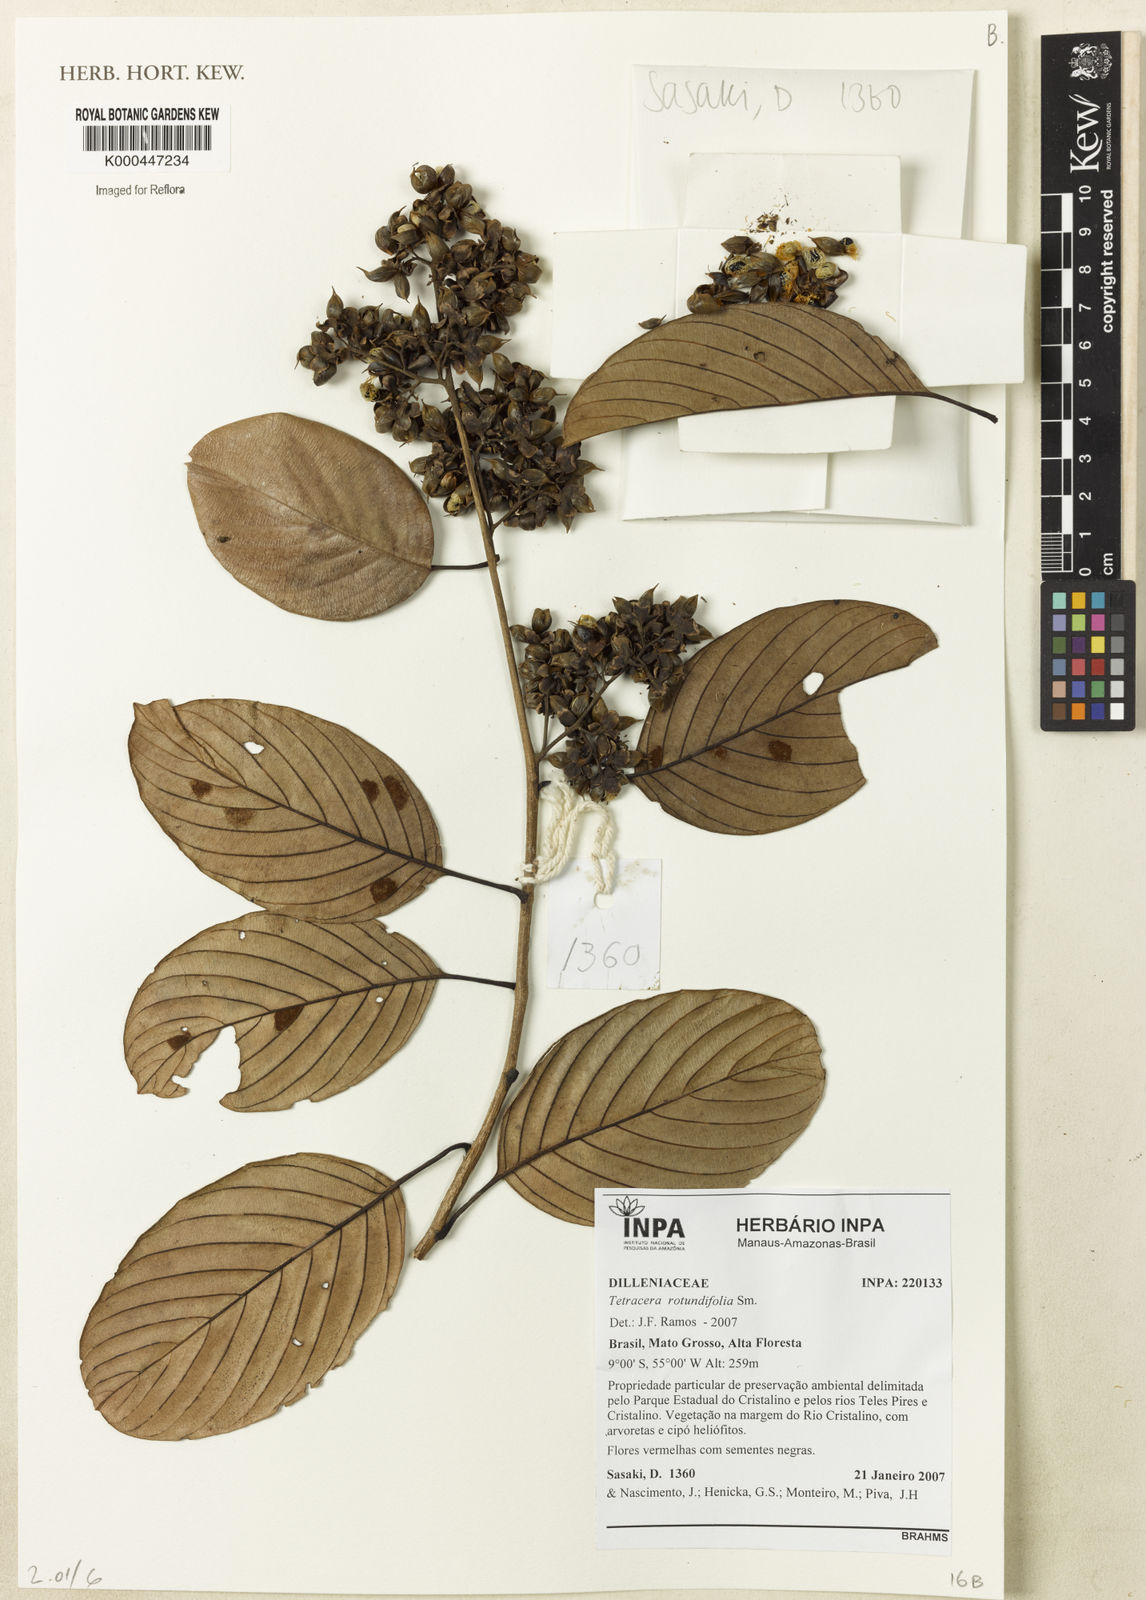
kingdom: Plantae
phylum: Tracheophyta
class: Magnoliopsida
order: Dilleniales
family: Dilleniaceae
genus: Tetracera
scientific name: Tetracera rotundifolia
